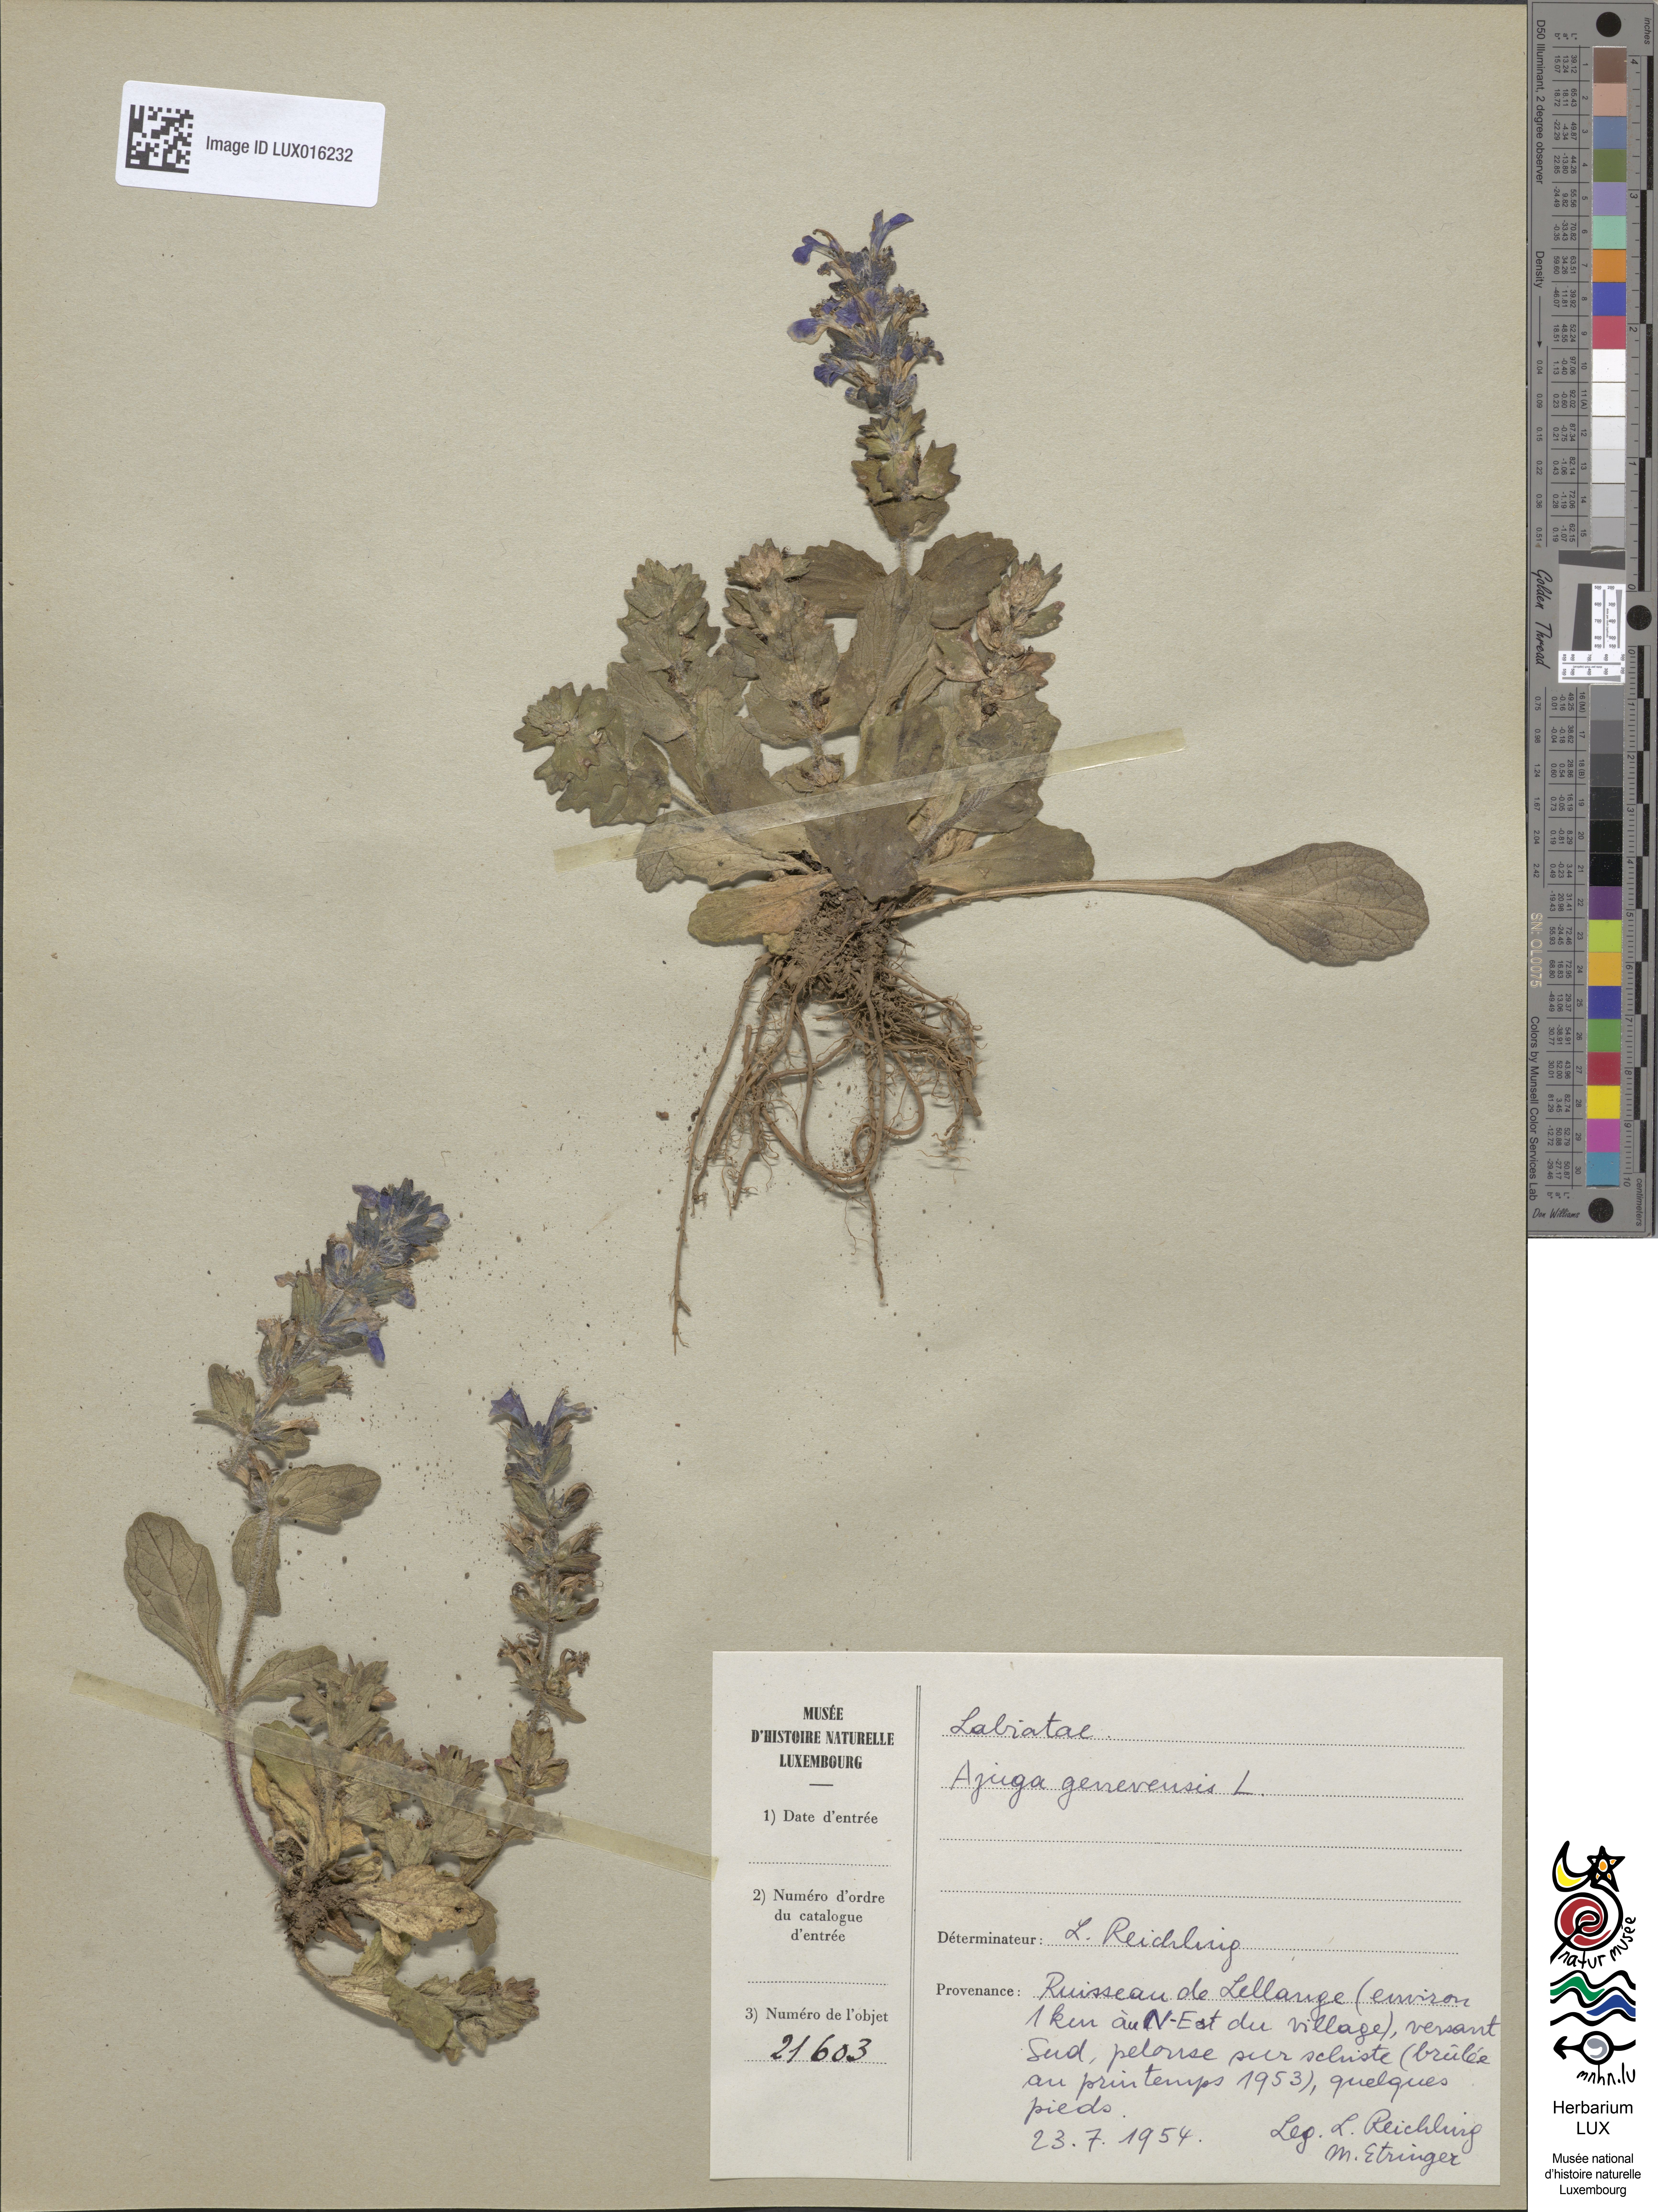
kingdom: Plantae
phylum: Tracheophyta
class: Magnoliopsida
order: Lamiales
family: Lamiaceae
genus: Ajuga
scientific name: Ajuga genevensis
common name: Blue bugle
